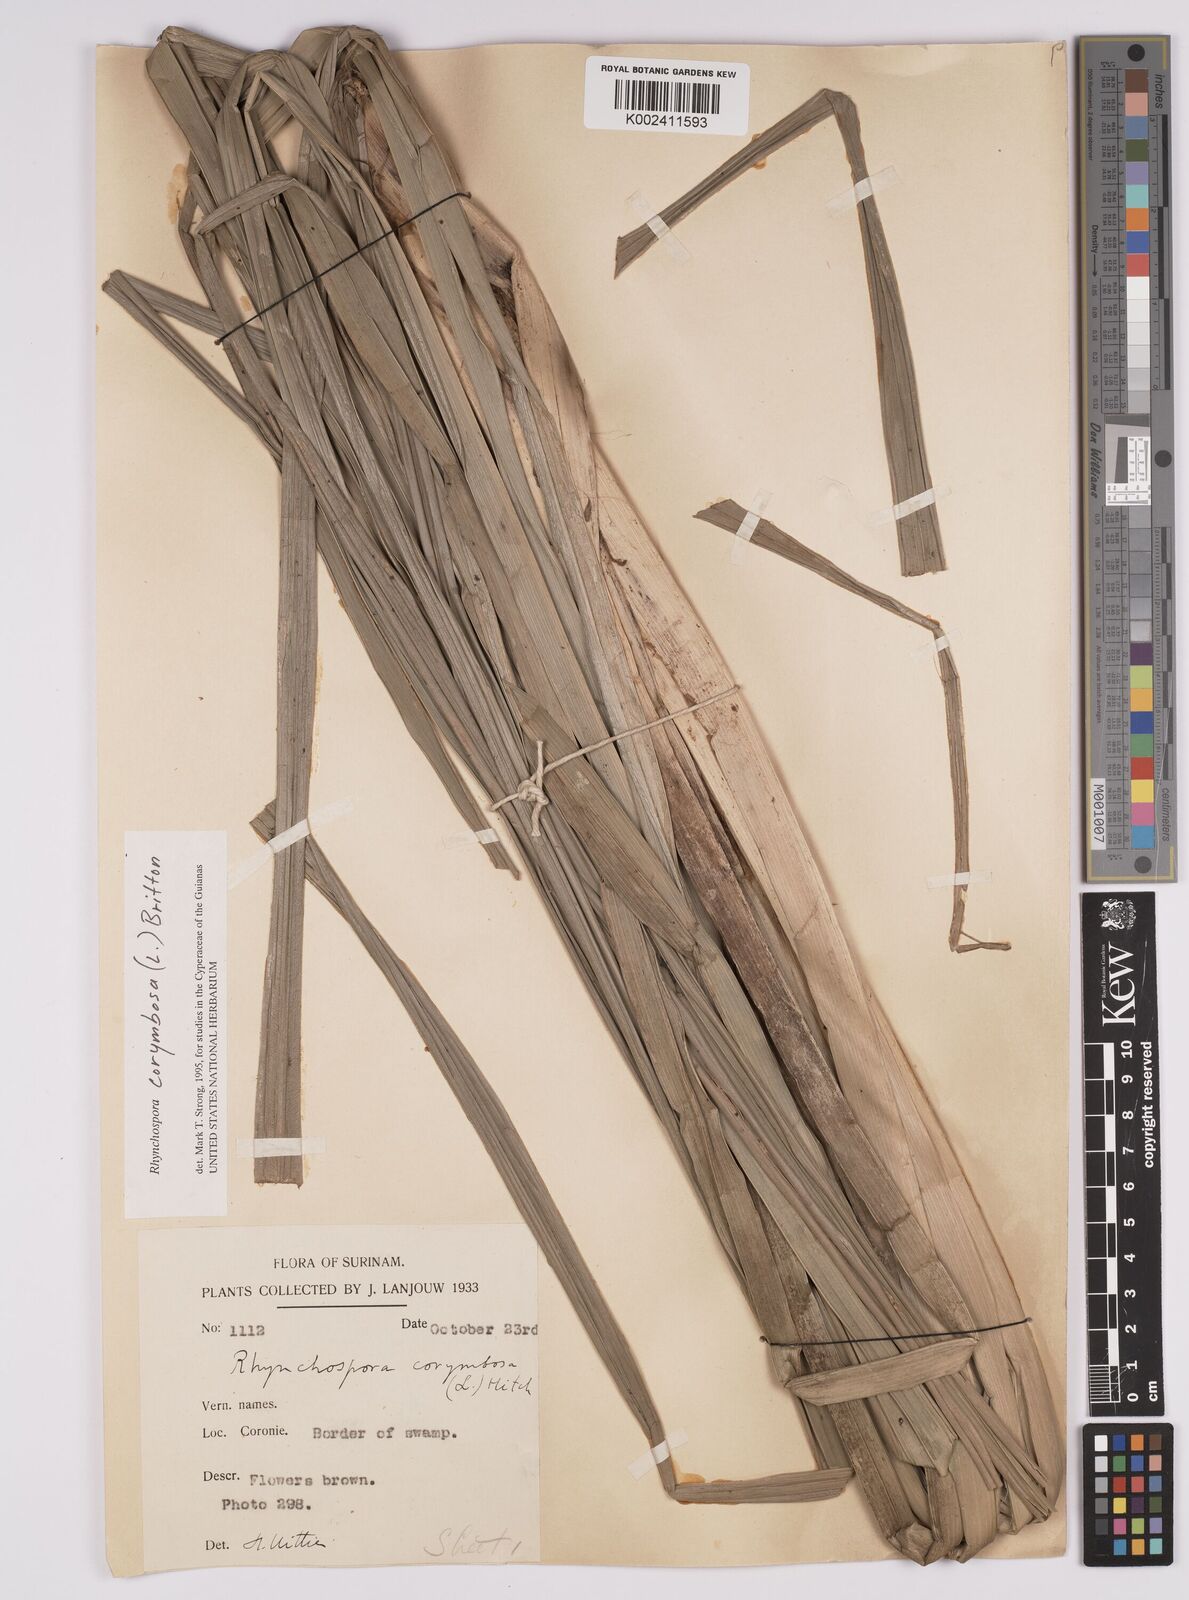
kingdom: Plantae
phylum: Tracheophyta
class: Liliopsida
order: Poales
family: Cyperaceae
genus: Rhynchospora
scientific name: Rhynchospora corymbosa
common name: Golden beak sedge
